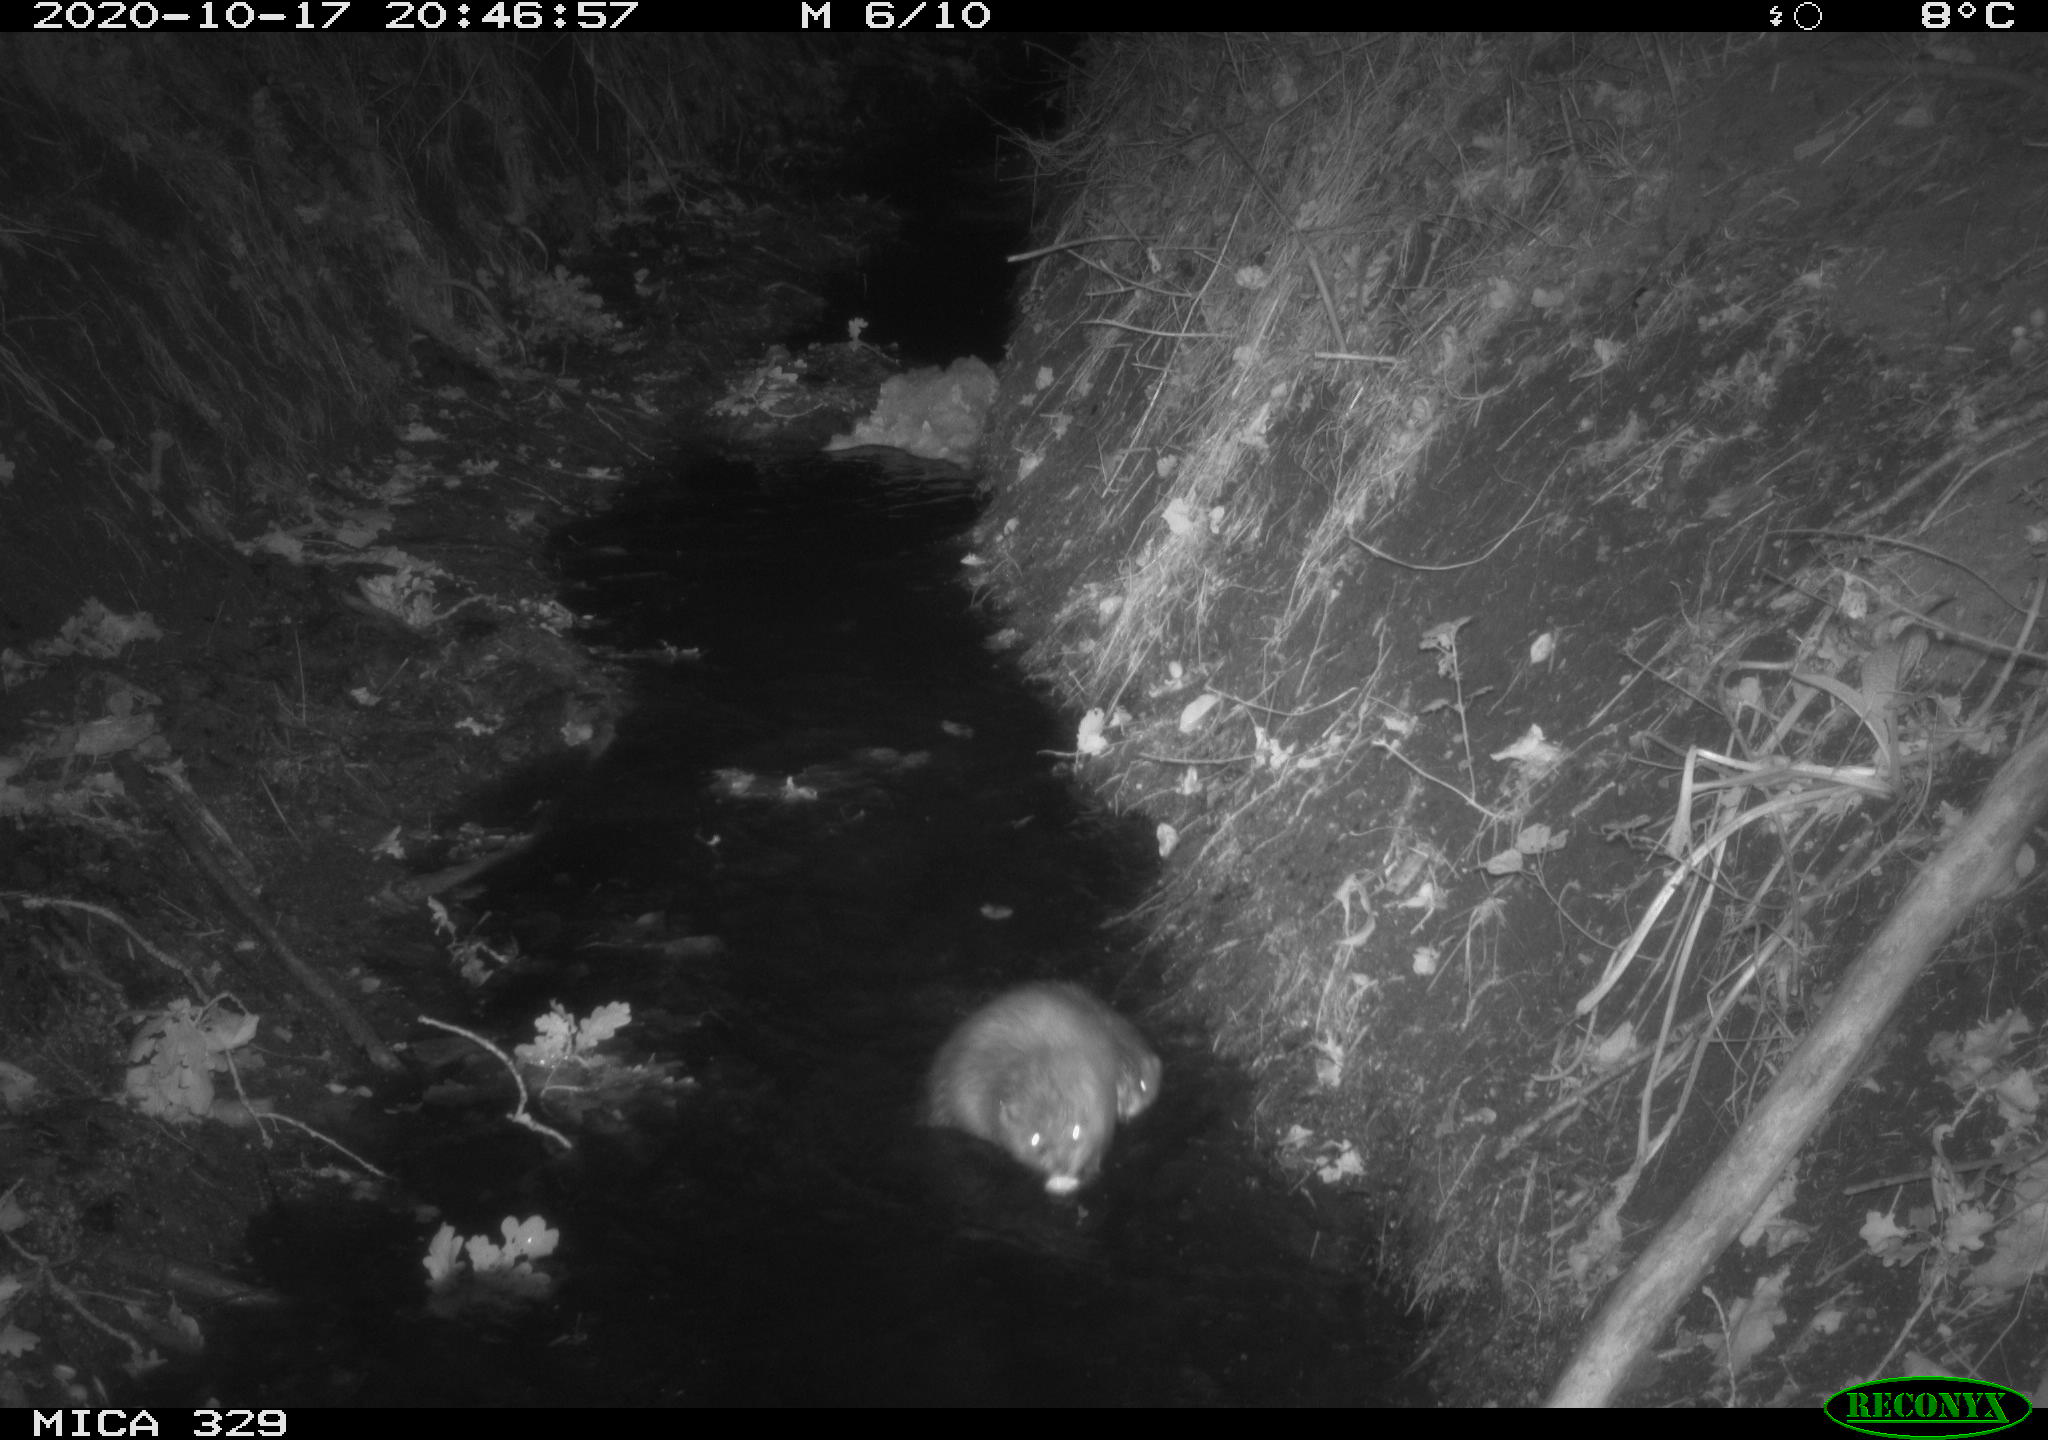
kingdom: Animalia
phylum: Chordata
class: Mammalia
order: Rodentia
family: Cricetidae
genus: Ondatra
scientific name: Ondatra zibethicus
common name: Muskrat
